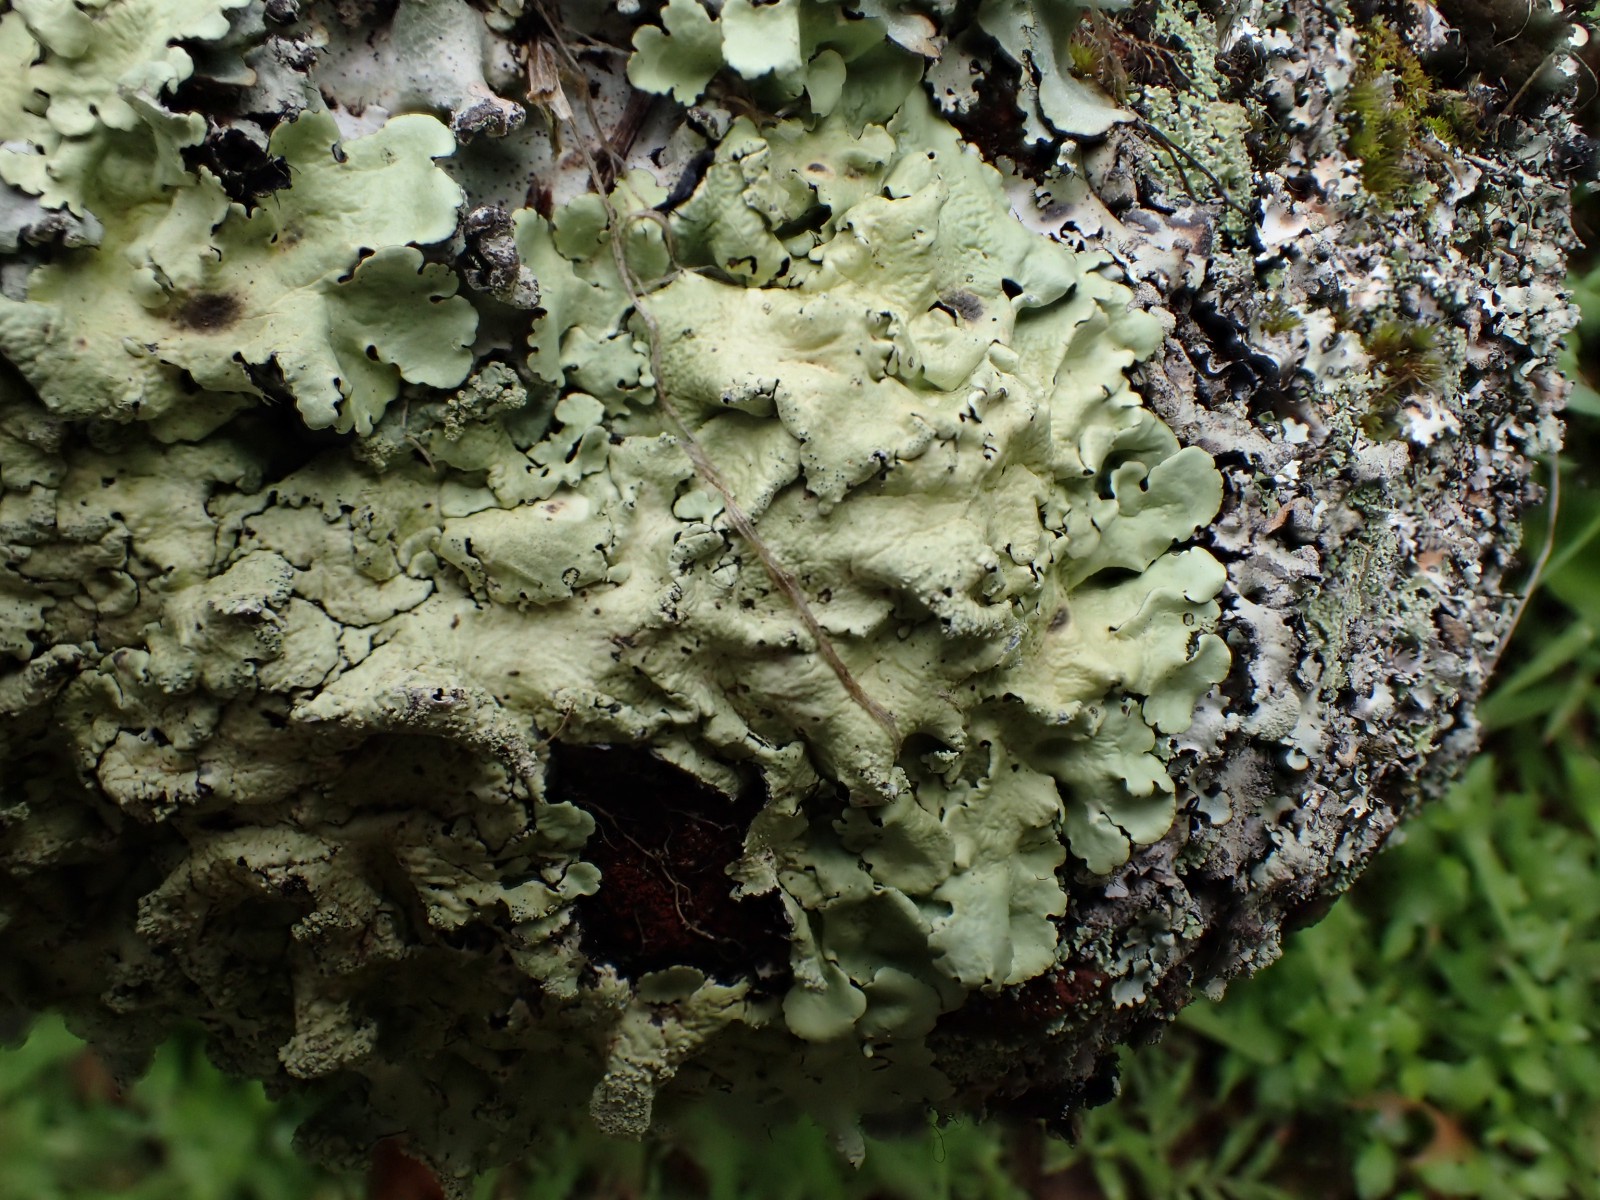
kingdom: Fungi
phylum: Ascomycota
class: Lecanoromycetes
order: Lecanorales
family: Parmeliaceae
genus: Flavoparmelia
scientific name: Flavoparmelia caperata
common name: gulgrøn skållav
